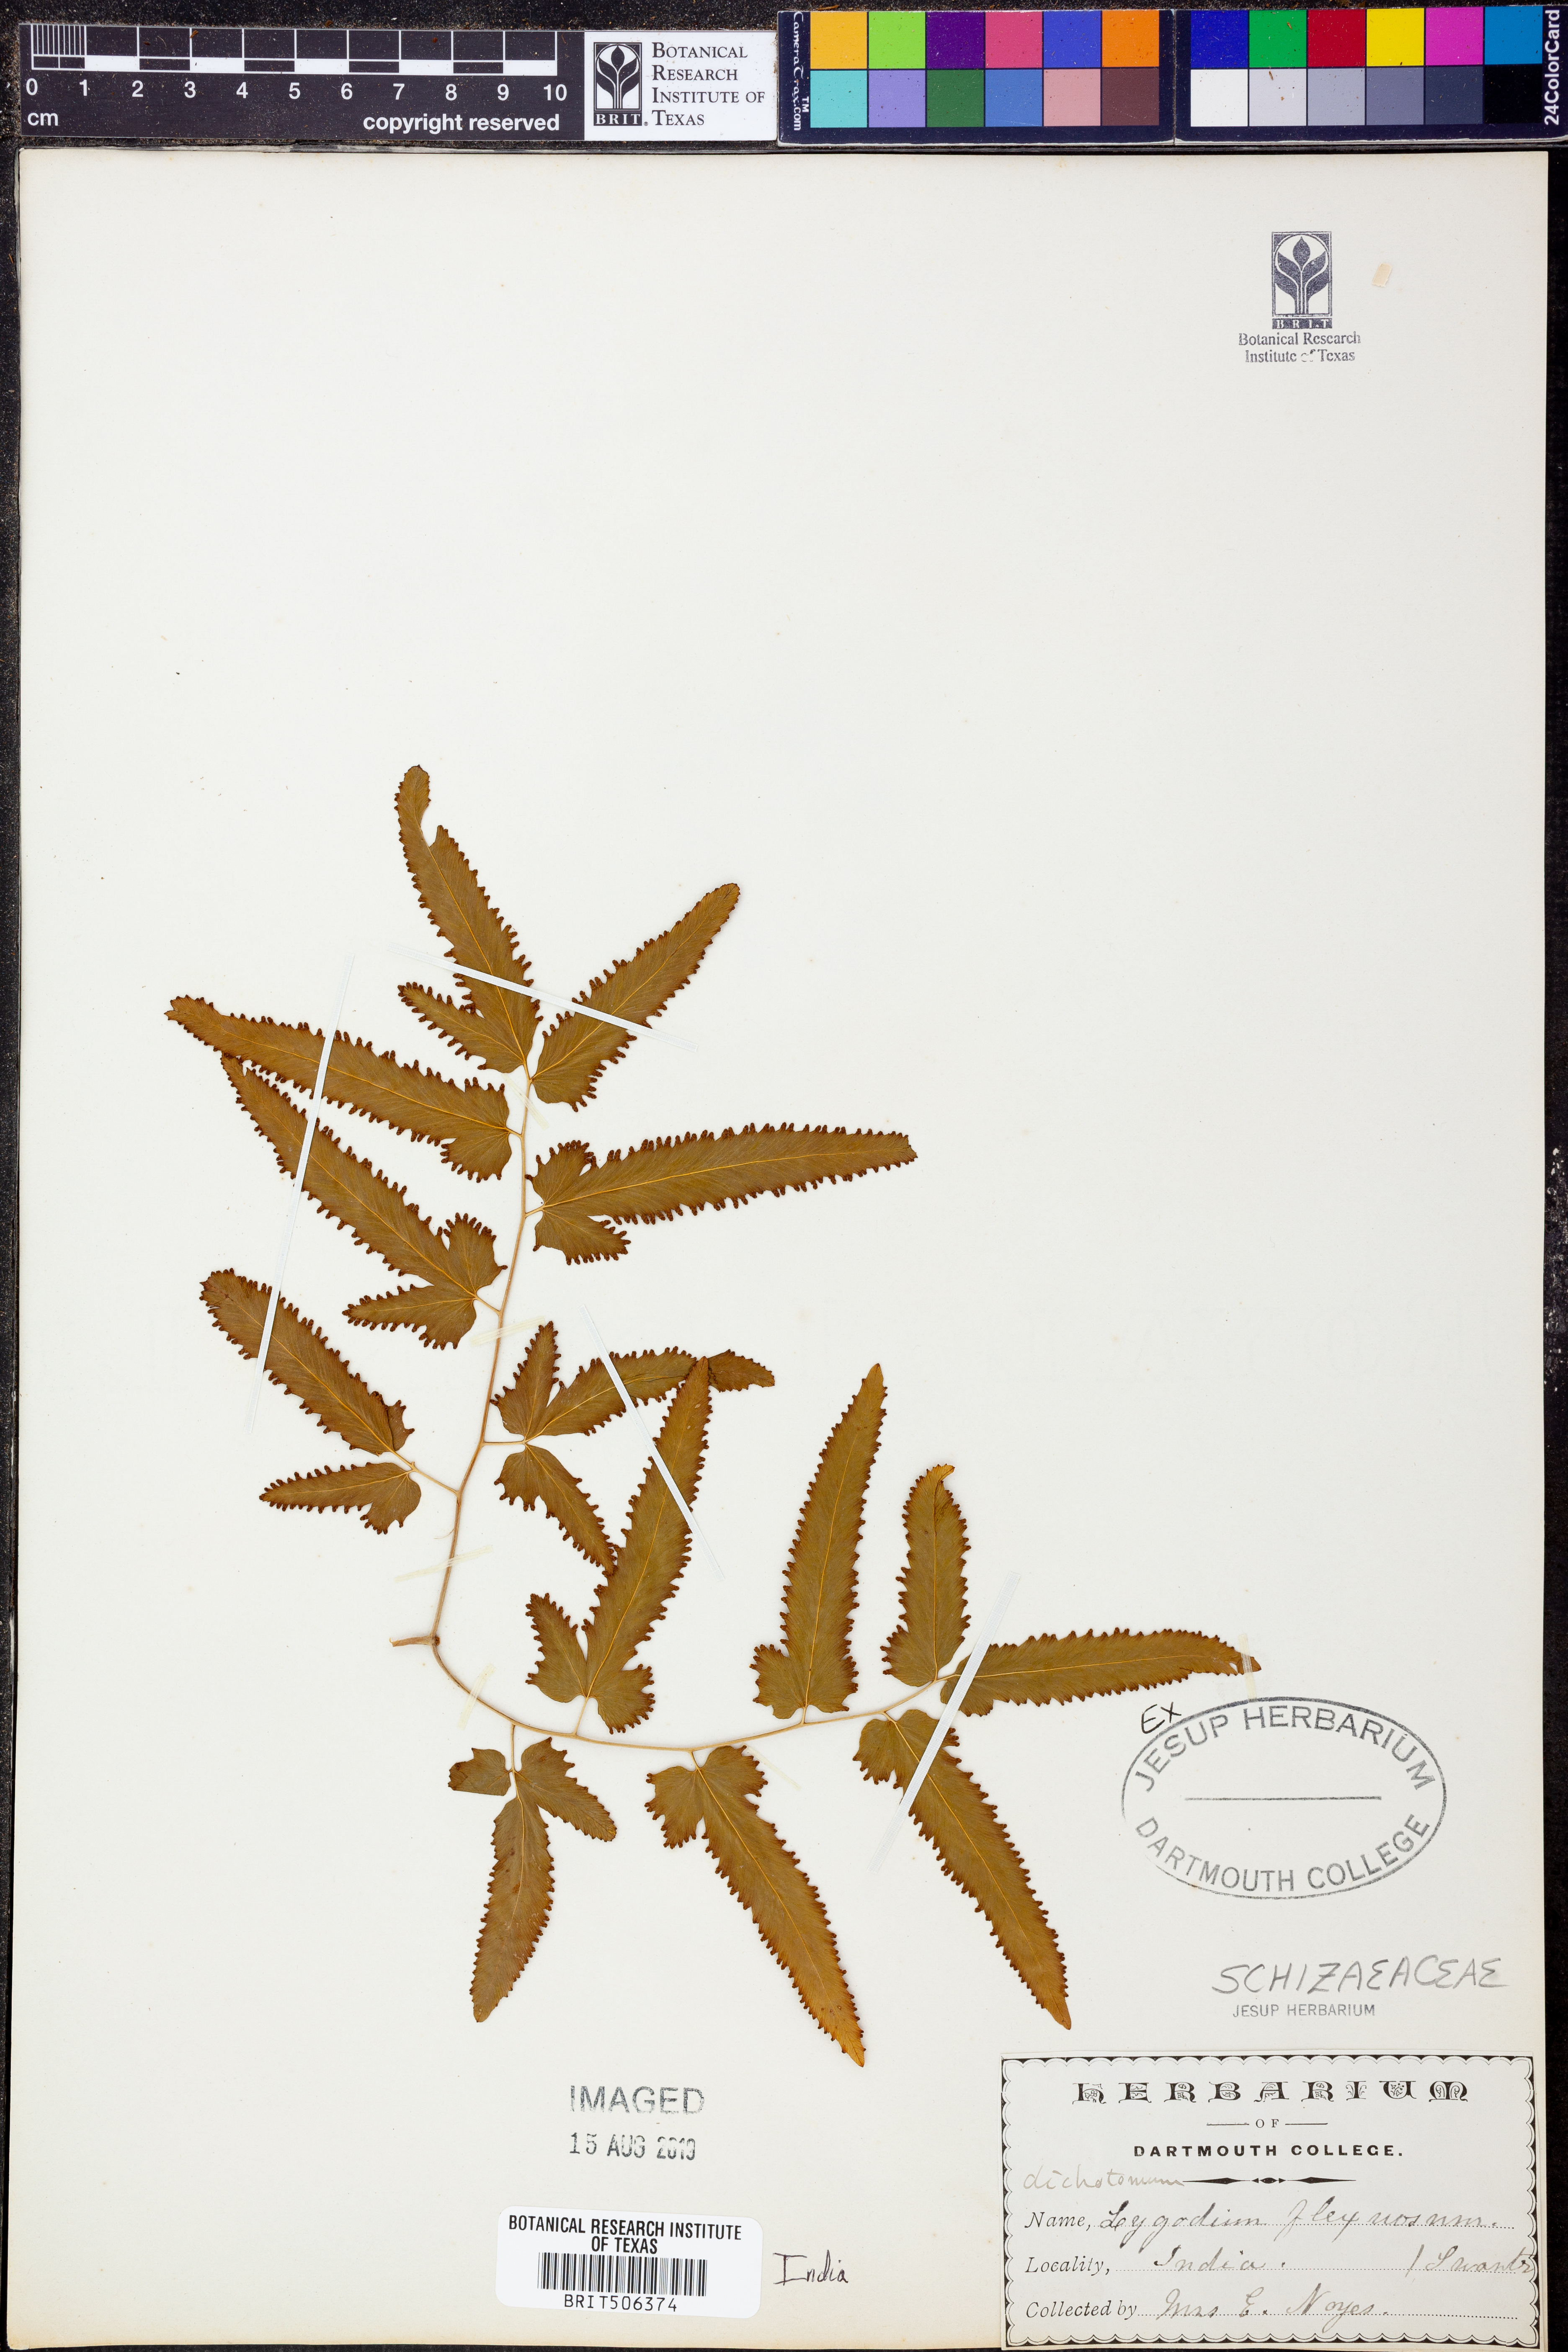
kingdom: Plantae
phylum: Tracheophyta
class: Polypodiopsida
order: Schizaeales
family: Lygodiaceae
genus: Lygodium
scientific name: Lygodium flexuosum
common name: Maidenhair creeper
